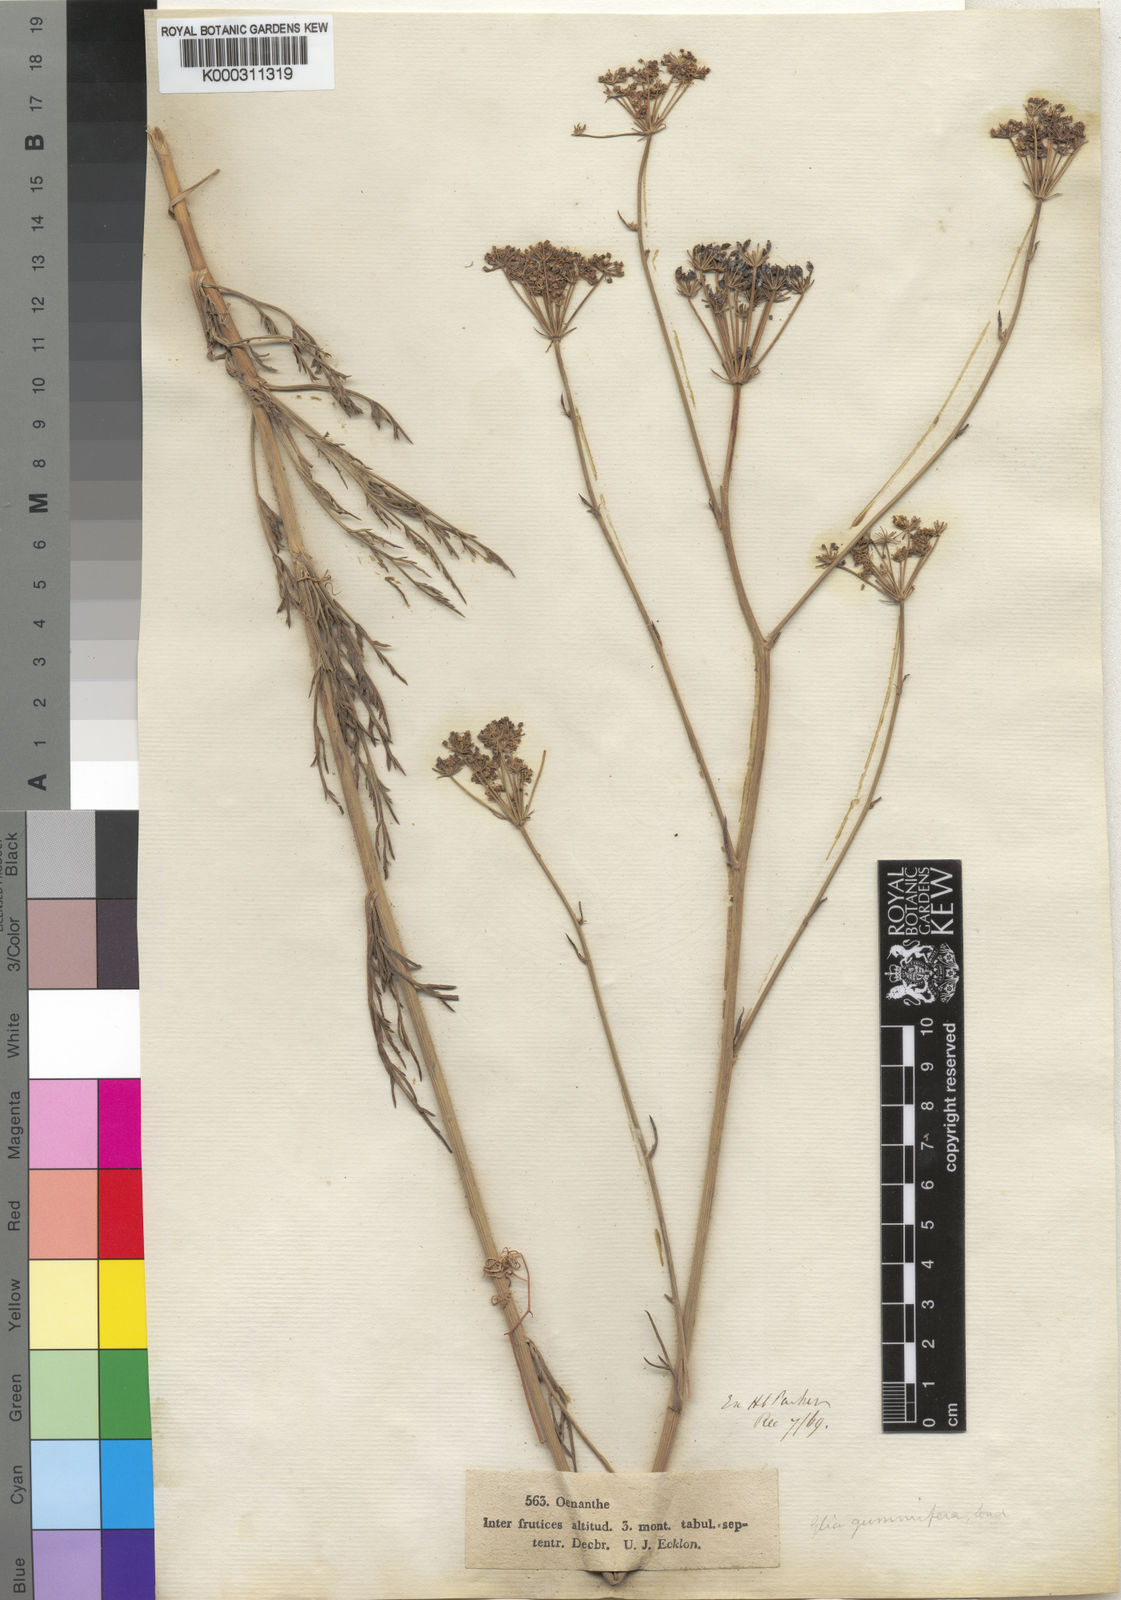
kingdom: Plantae
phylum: Tracheophyta
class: Magnoliopsida
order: Apiales
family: Apiaceae
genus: Annesorhiza
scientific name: Annesorhiza
